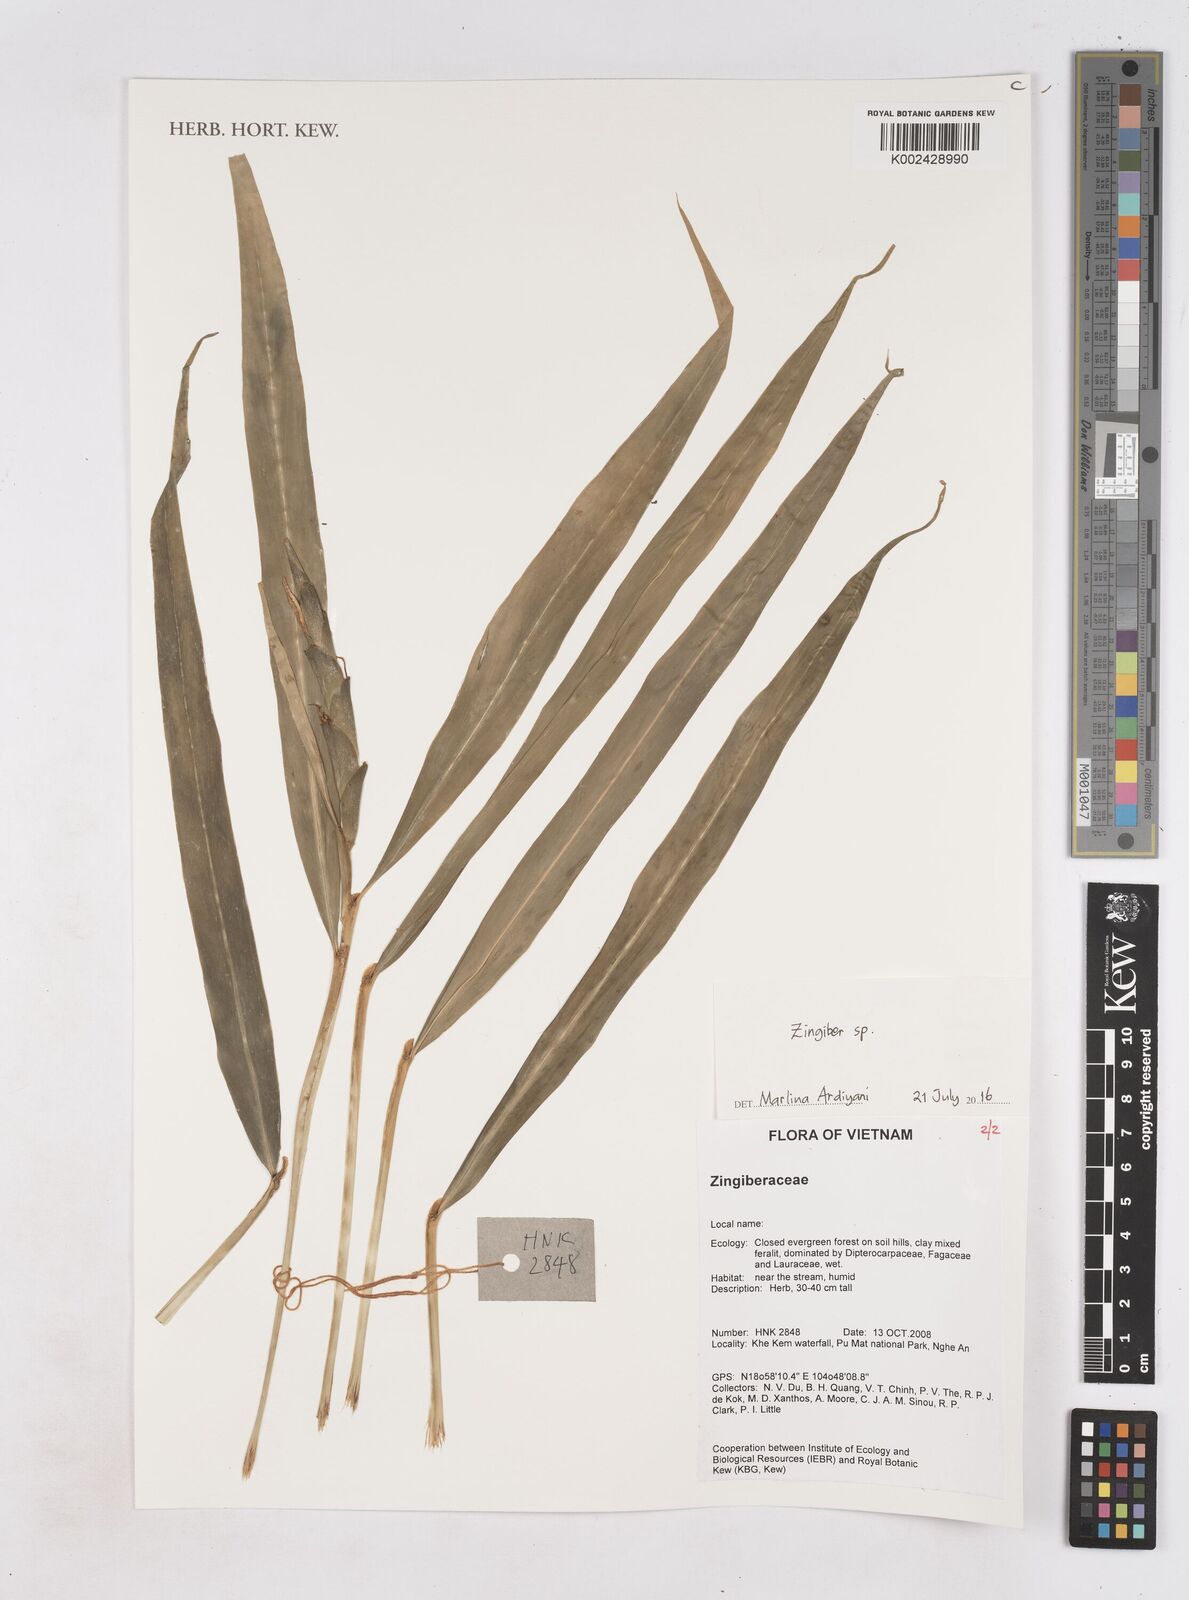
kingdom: Plantae
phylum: Tracheophyta
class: Liliopsida
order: Zingiberales
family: Zingiberaceae
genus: Zingiber
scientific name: Zingiber
